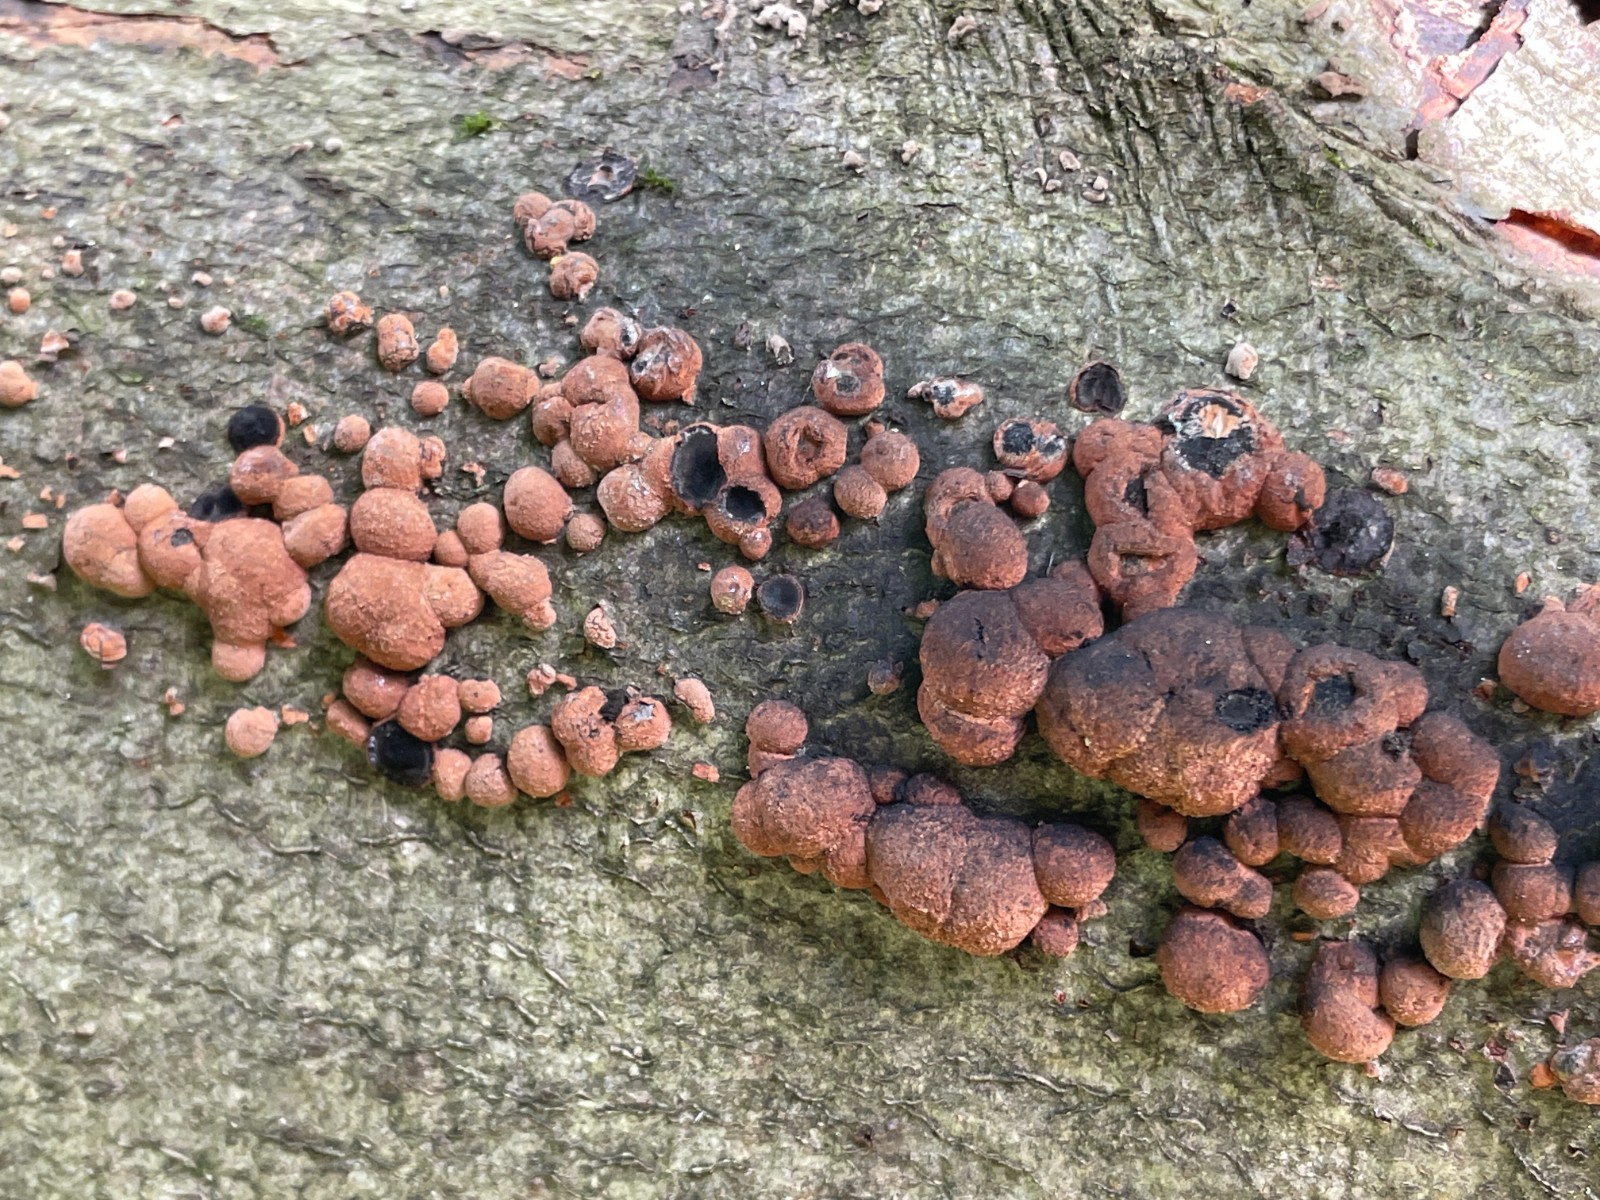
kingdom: Fungi
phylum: Ascomycota
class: Sordariomycetes
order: Xylariales
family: Hypoxylaceae
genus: Hypoxylon
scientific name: Hypoxylon fragiforme
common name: kuljordbær
